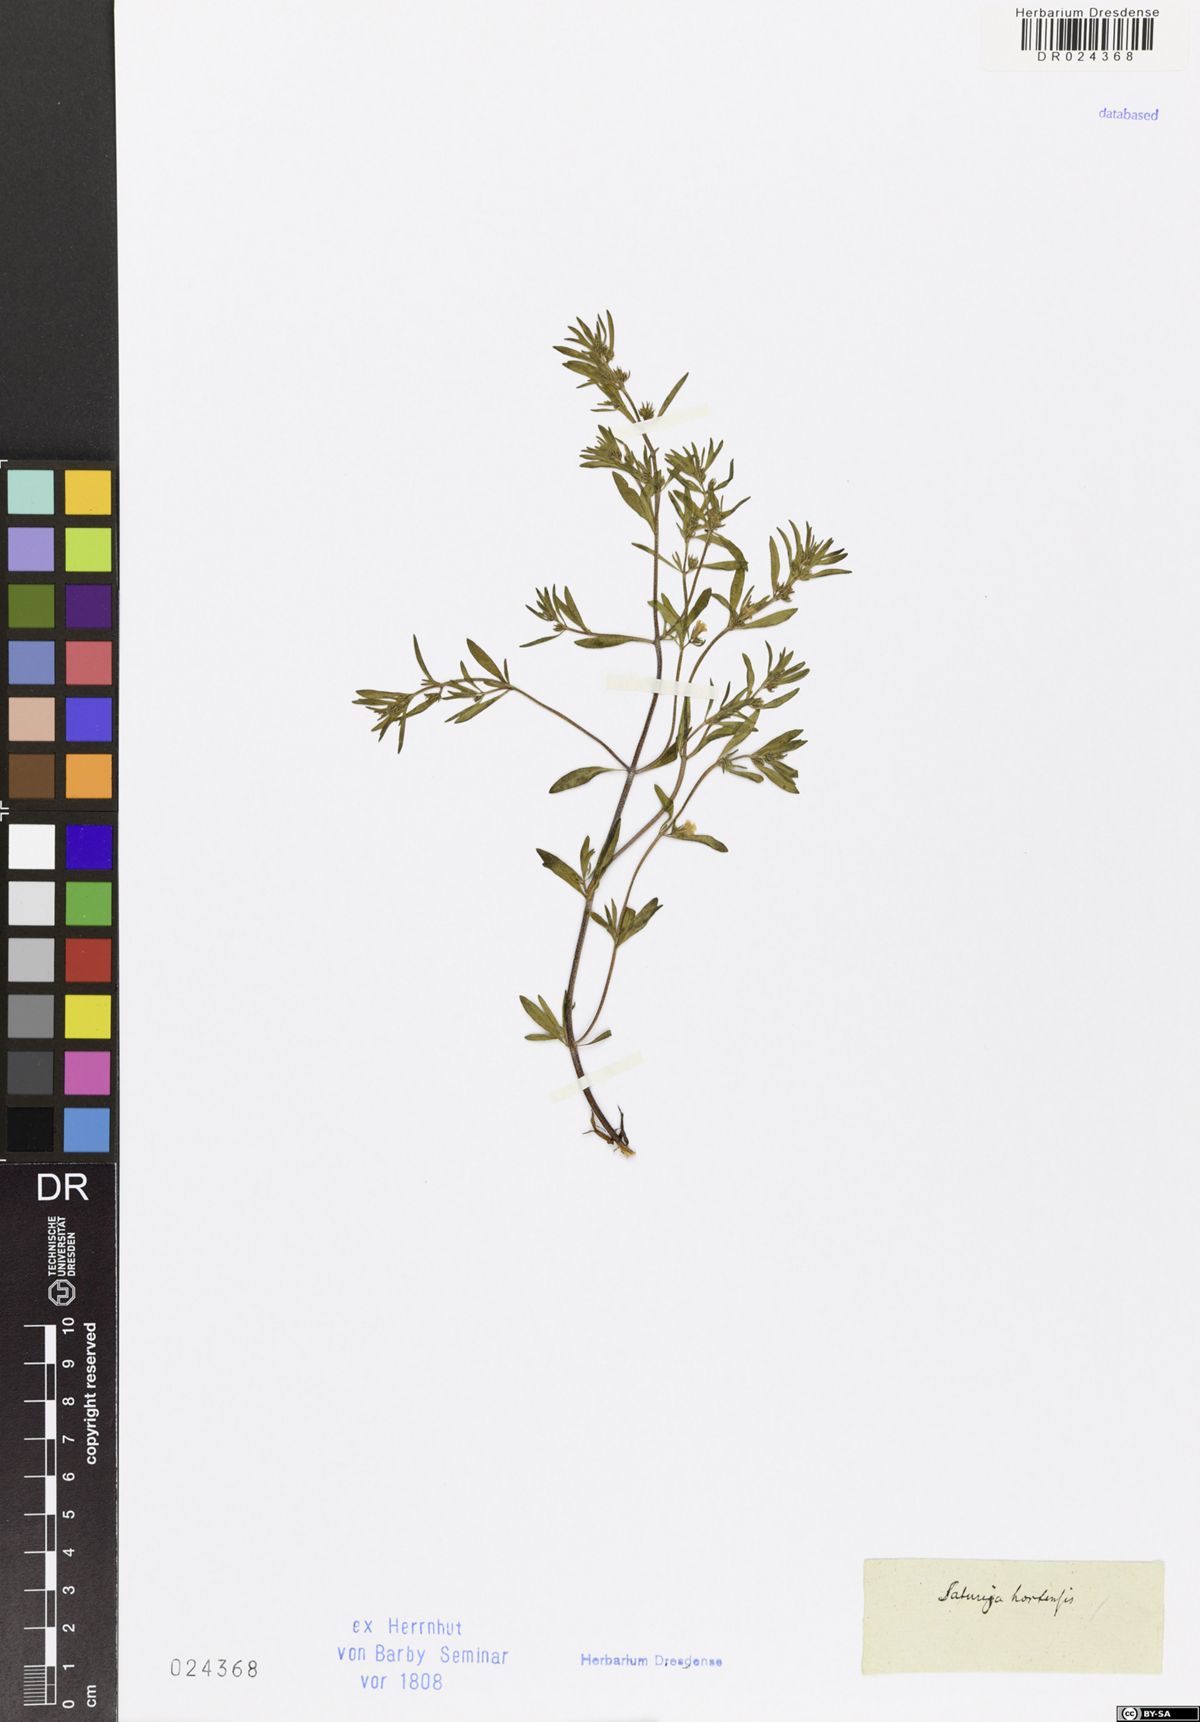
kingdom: Plantae
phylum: Tracheophyta
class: Magnoliopsida
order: Lamiales
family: Lamiaceae
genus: Satureja
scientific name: Satureja hortensis
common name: Summer savory
